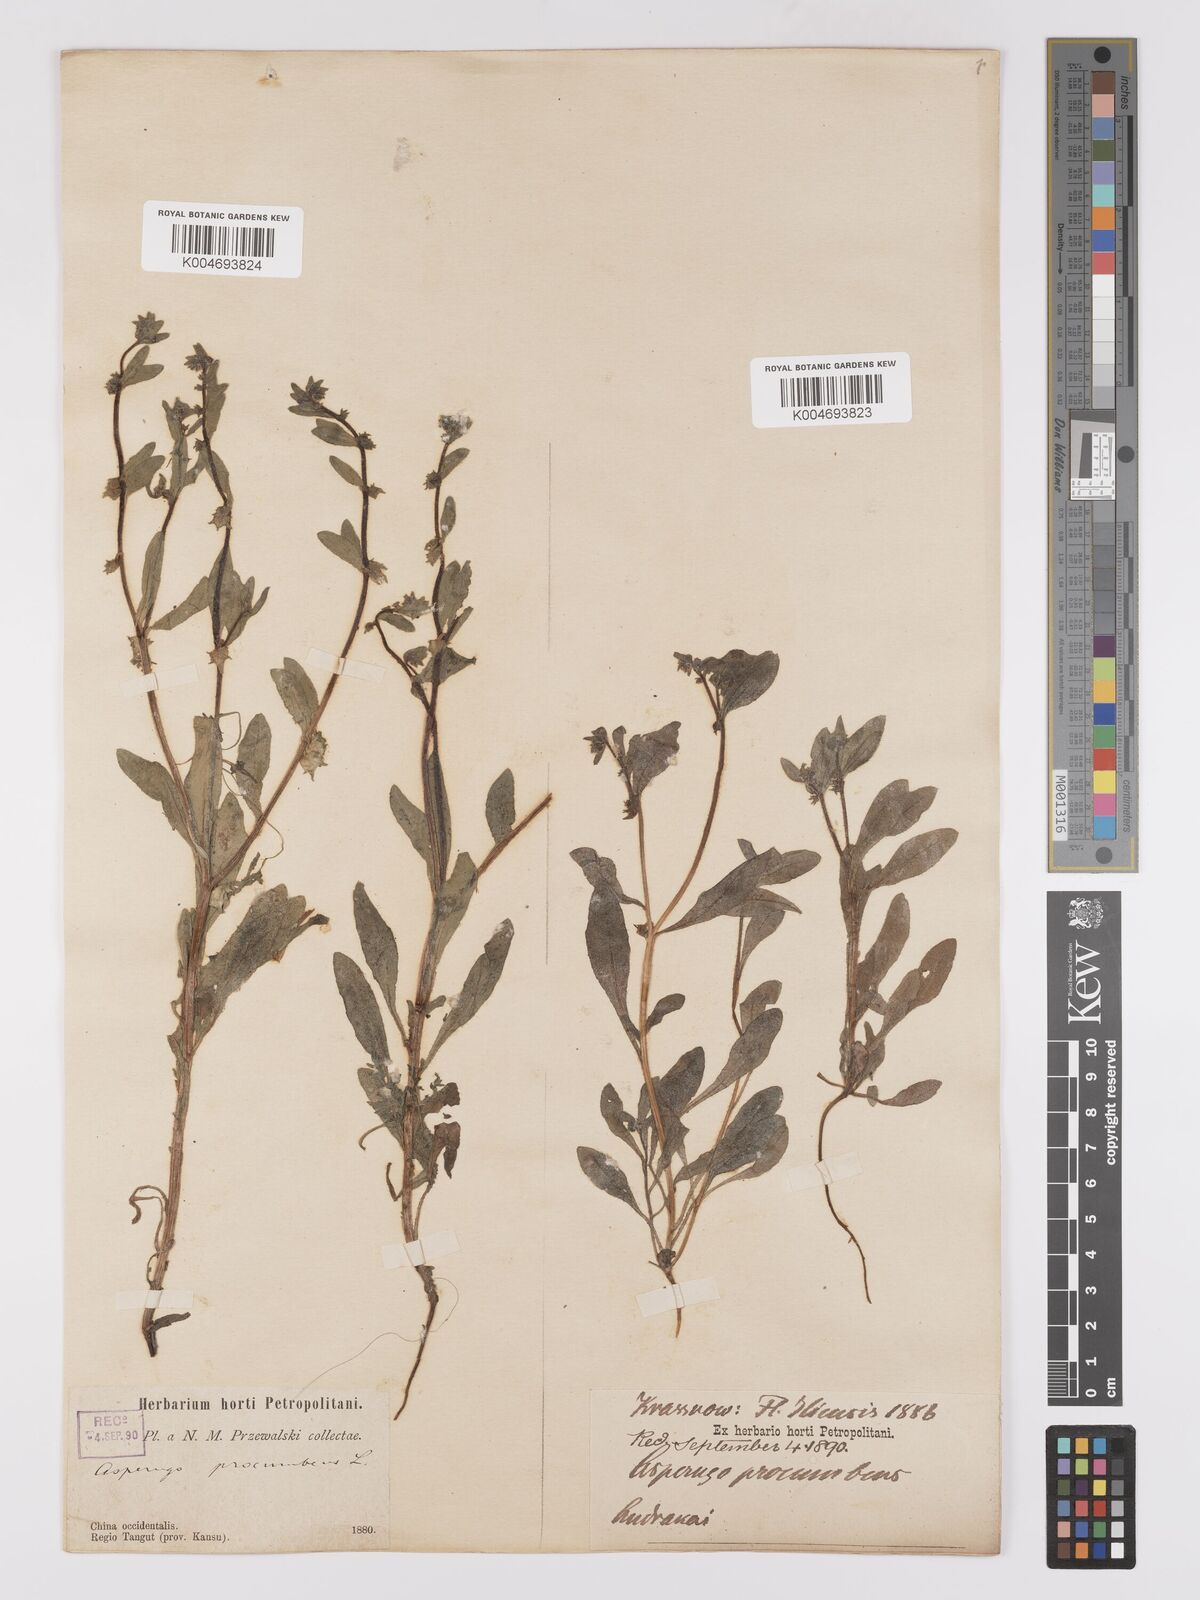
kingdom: Plantae
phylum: Tracheophyta
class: Magnoliopsida
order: Boraginales
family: Boraginaceae
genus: Asperugo
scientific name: Asperugo procumbens
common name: Madwort
